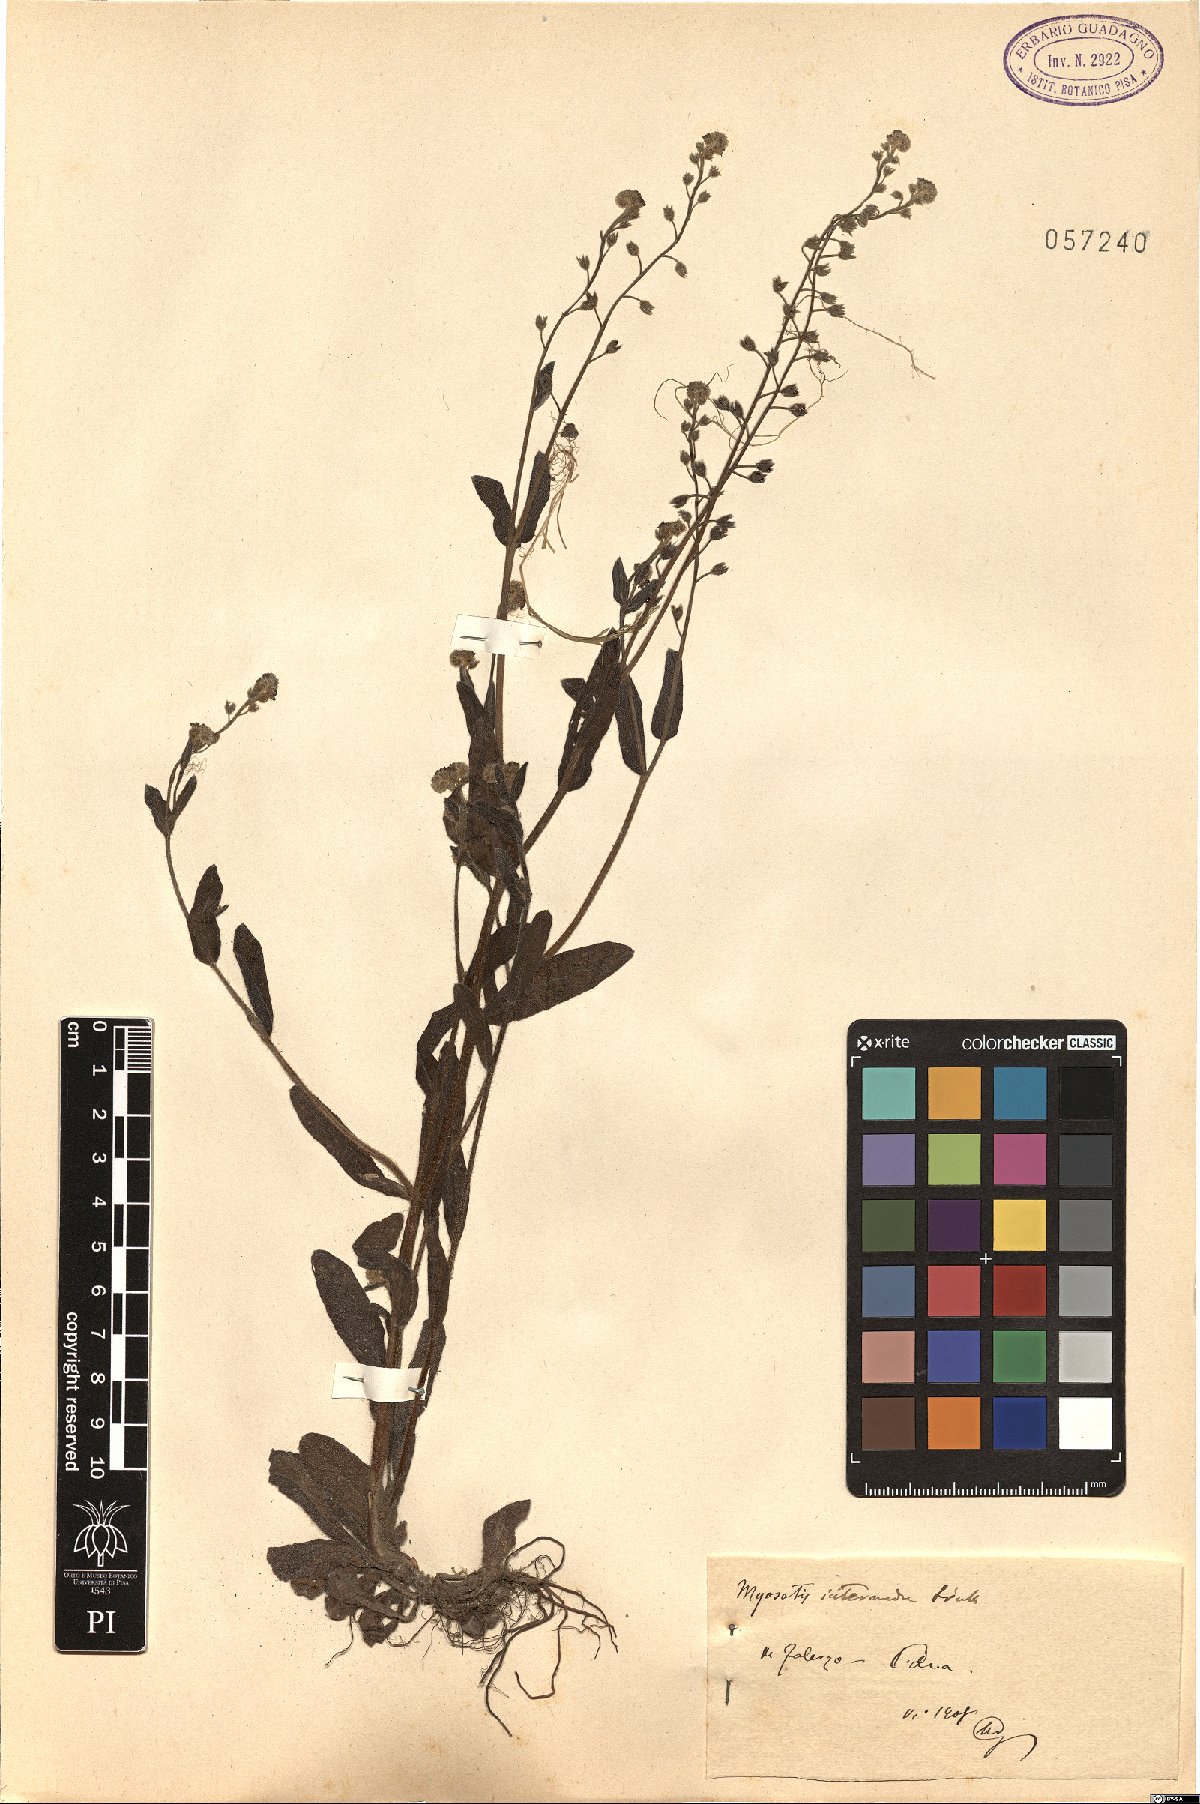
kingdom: Plantae
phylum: Tracheophyta
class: Magnoliopsida
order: Boraginales
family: Boraginaceae
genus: Myosotis
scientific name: Myosotis arvensis
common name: Field forget-me-not
